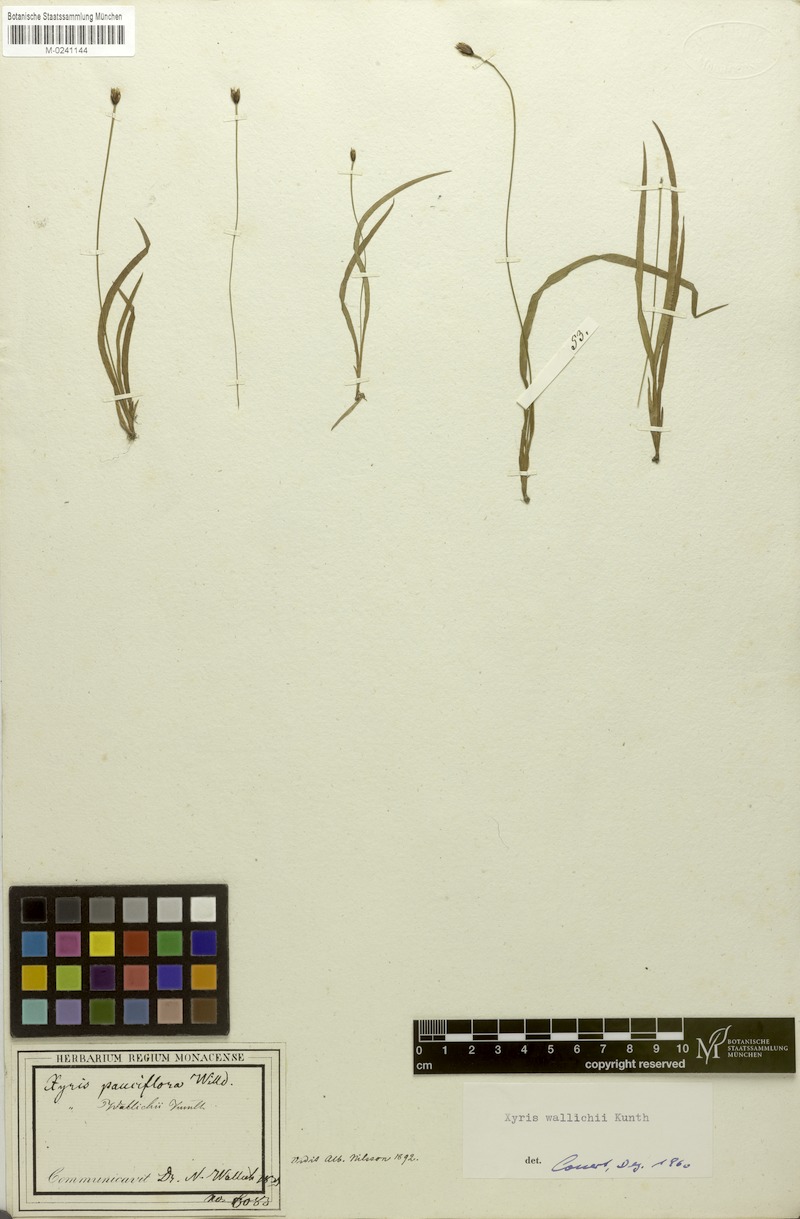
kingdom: Plantae
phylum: Tracheophyta
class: Liliopsida
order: Poales
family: Xyridaceae
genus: Xyris
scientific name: Xyris wallichii
